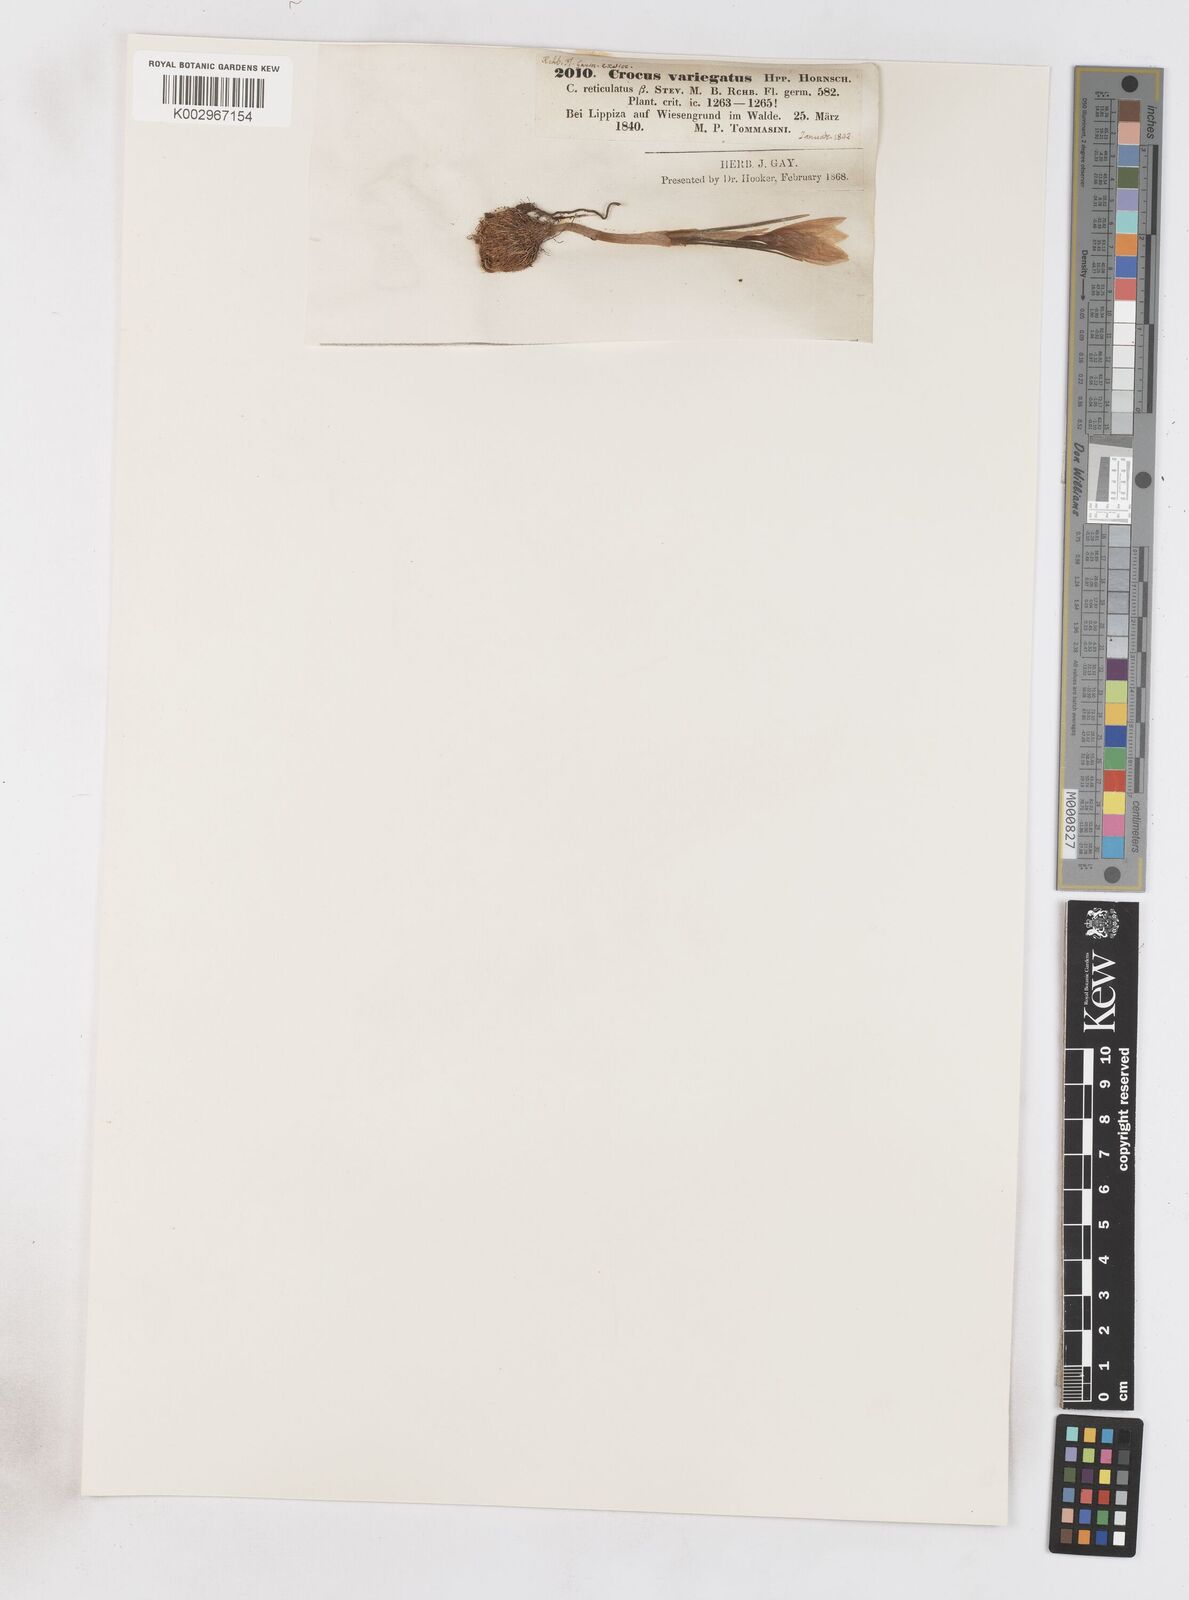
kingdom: Plantae
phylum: Tracheophyta
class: Liliopsida
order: Asparagales
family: Iridaceae
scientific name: Iridaceae
